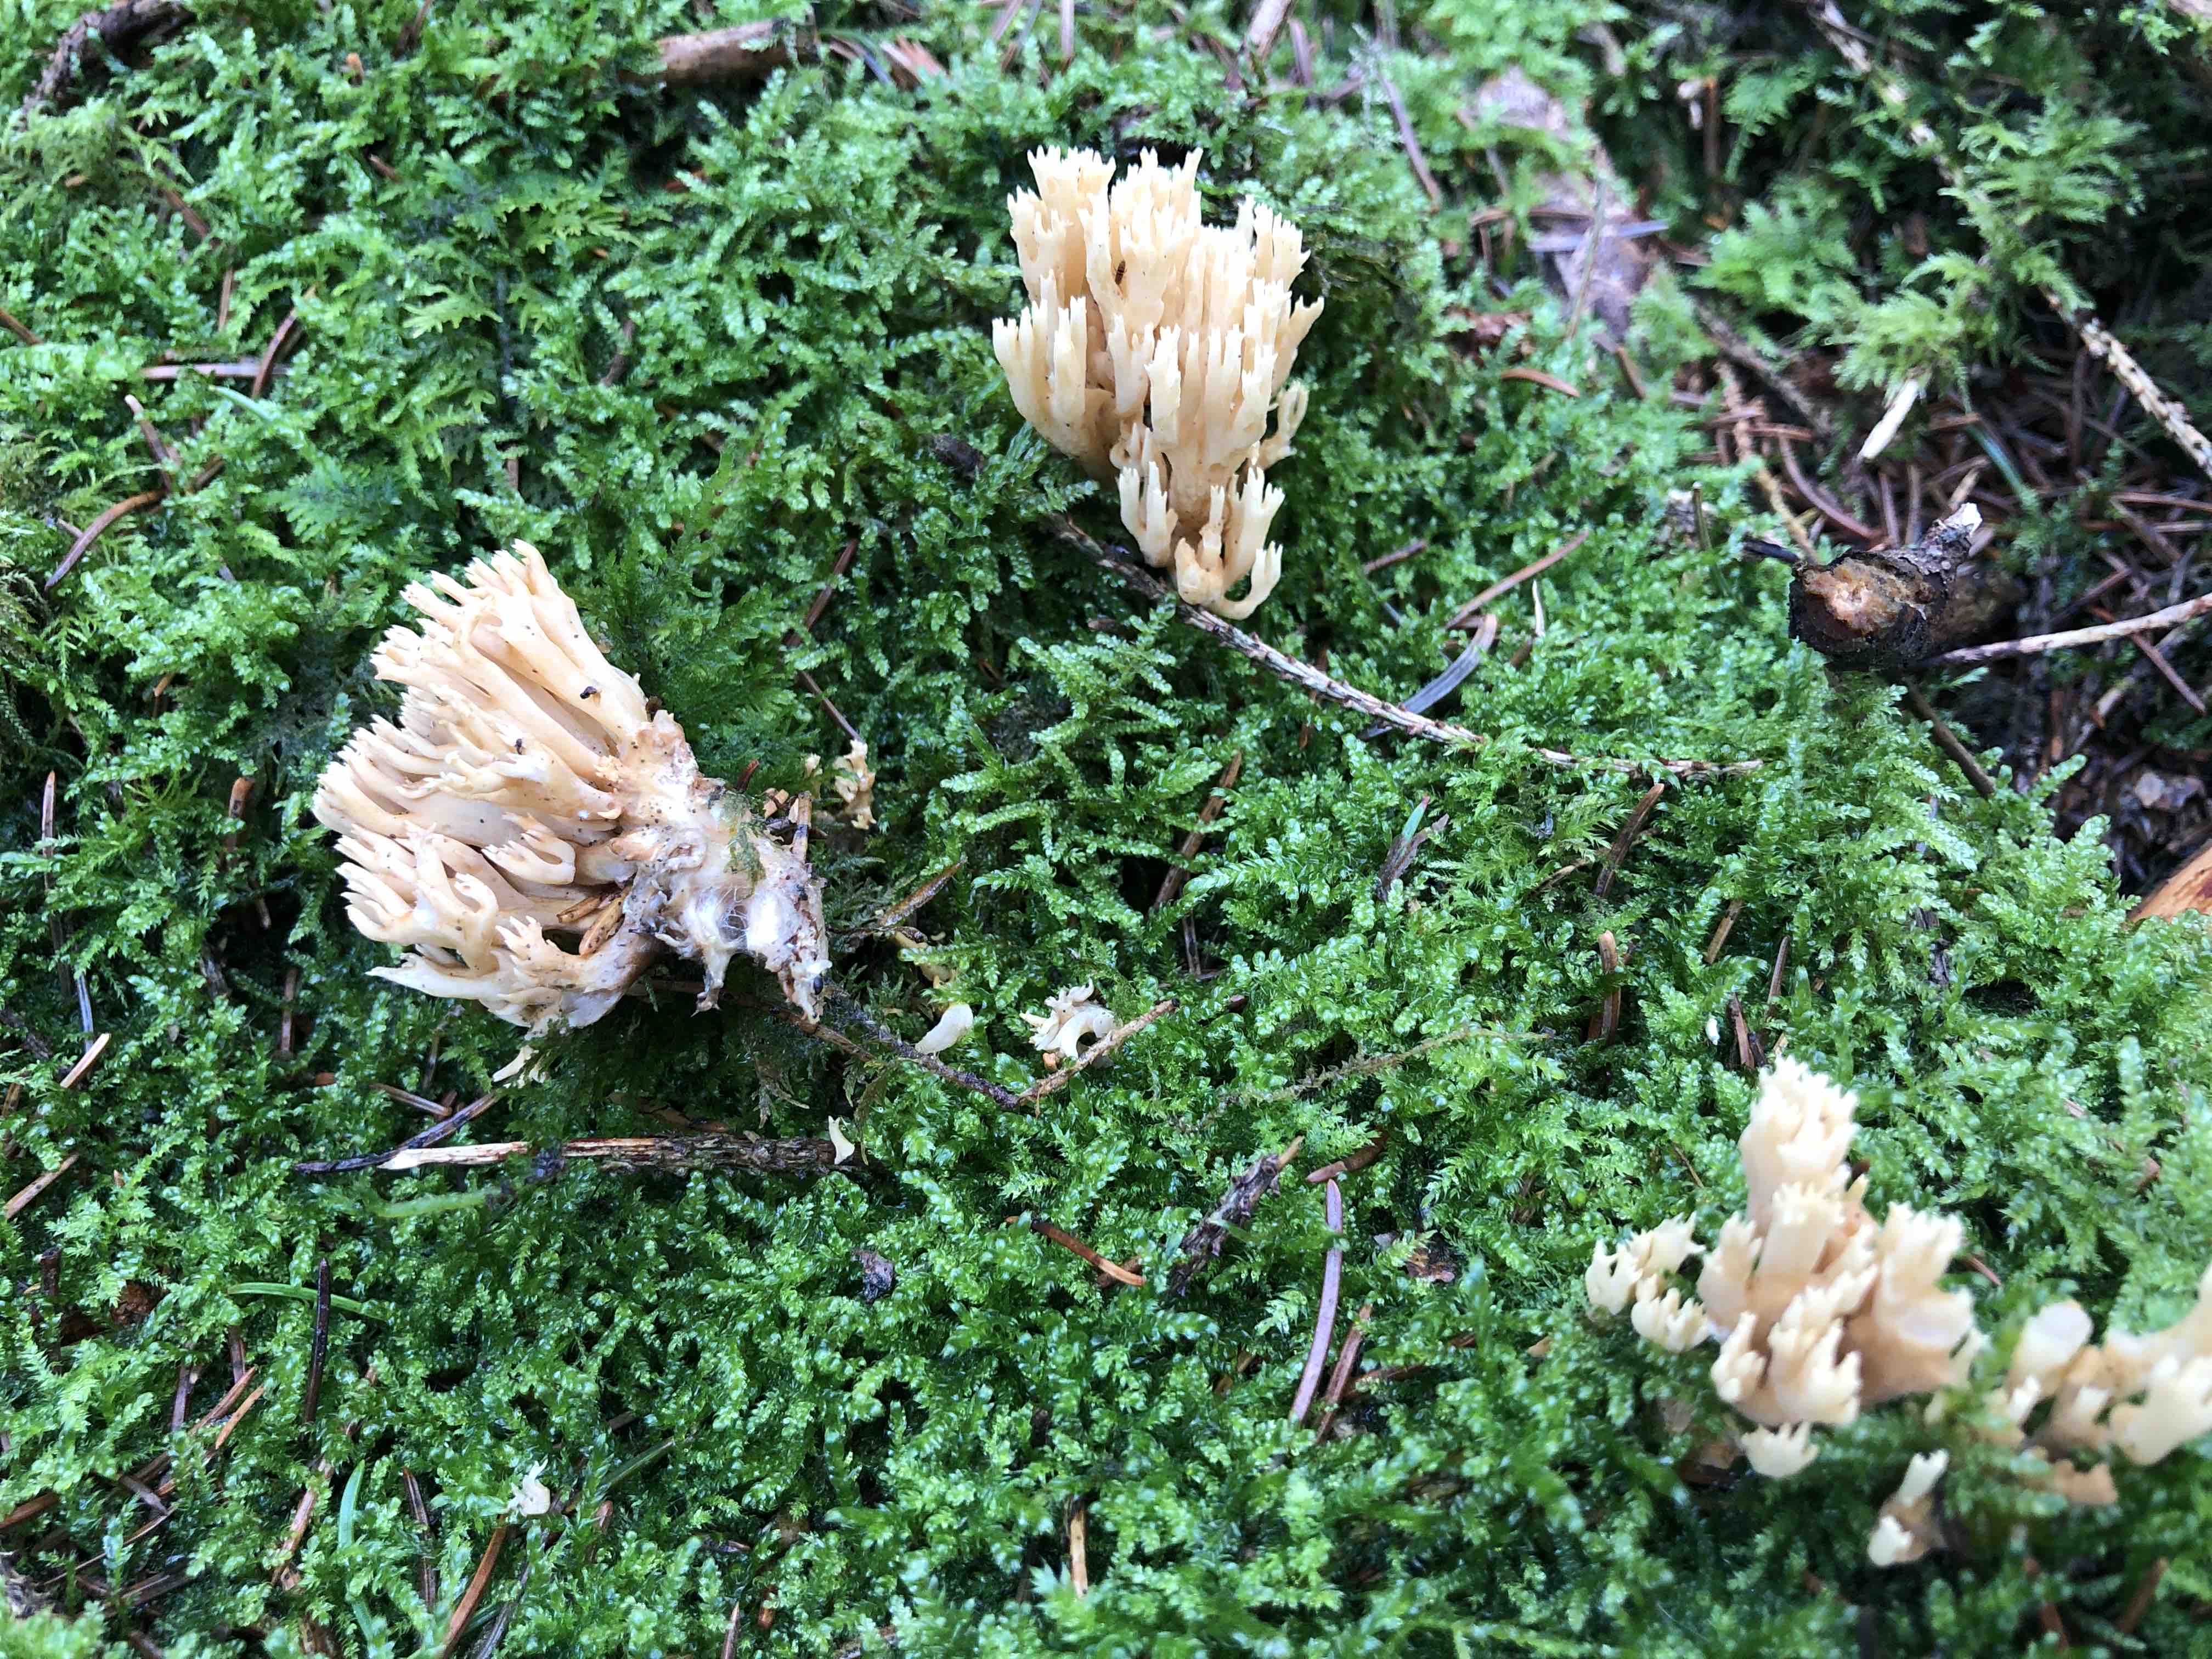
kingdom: Fungi
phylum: Basidiomycota
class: Agaricomycetes
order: Gomphales
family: Gomphaceae
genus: Phaeoclavulina
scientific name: Phaeoclavulina eumorpha
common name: gran-koralsvamp
